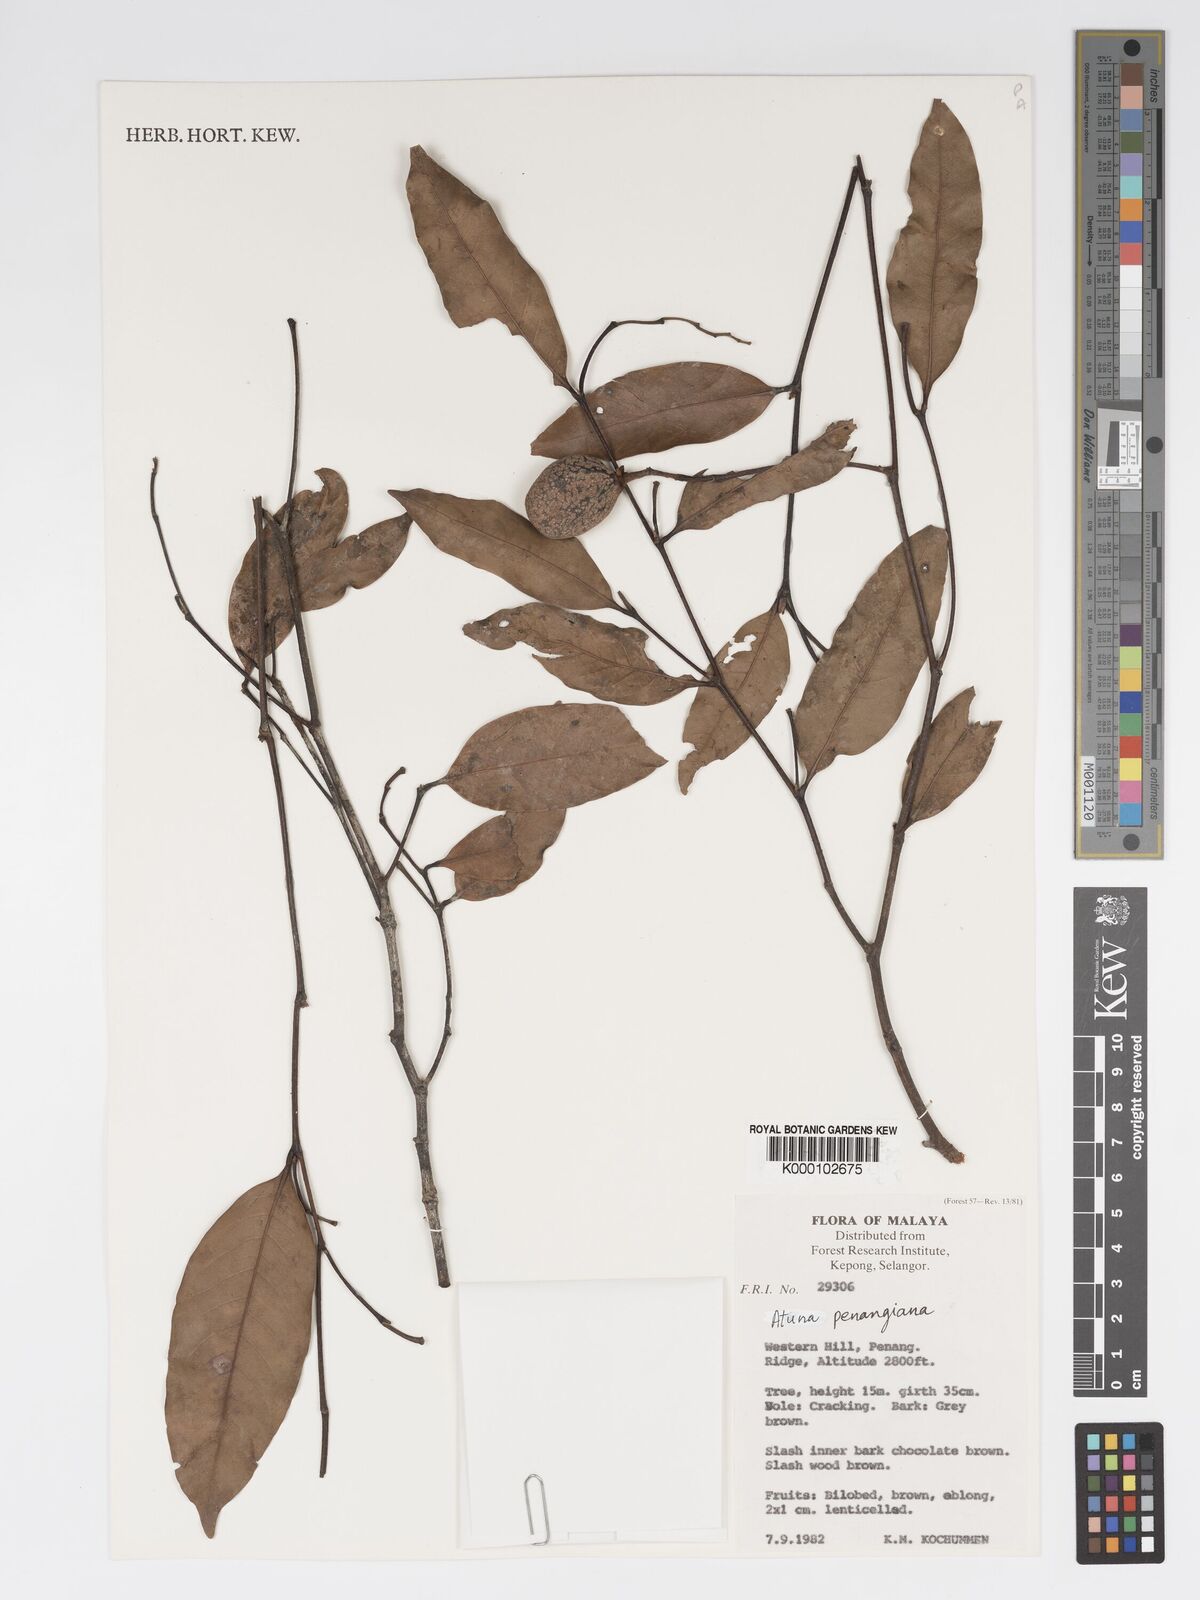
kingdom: Plantae
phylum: Tracheophyta
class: Magnoliopsida
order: Malpighiales
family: Chrysobalanaceae
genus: Atuna
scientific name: Atuna penangiana
